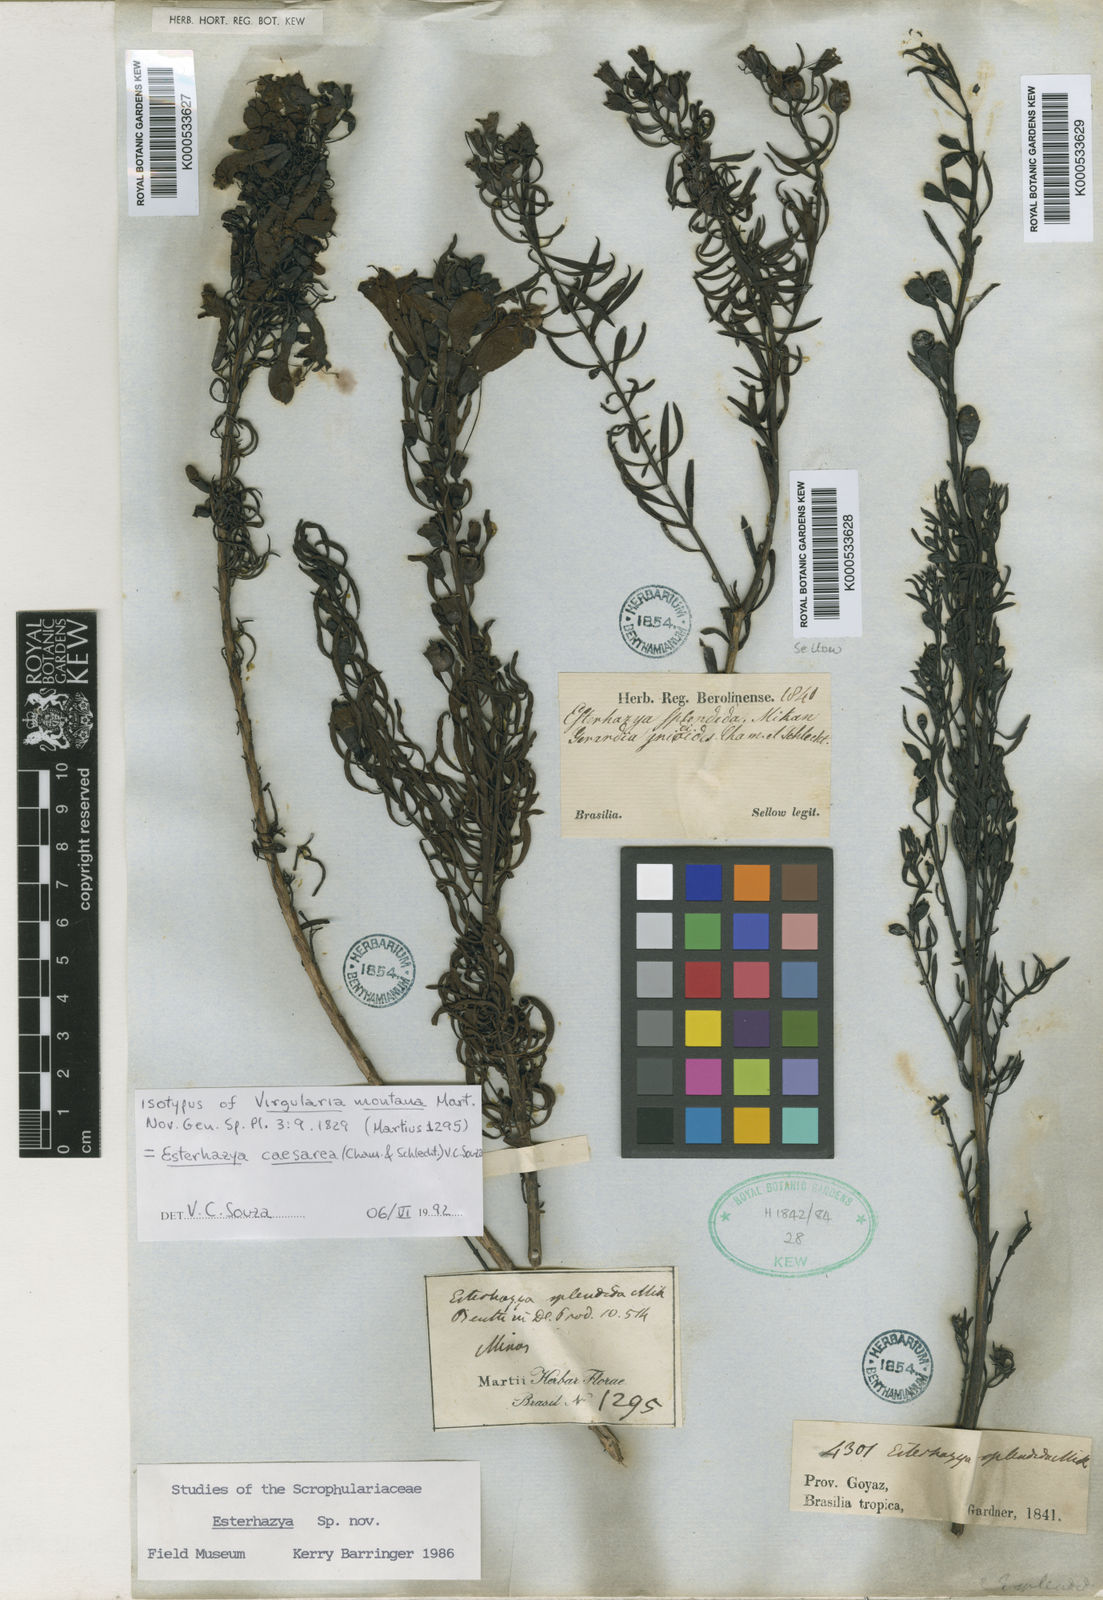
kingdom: Plantae
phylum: Tracheophyta
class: Magnoliopsida
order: Lamiales
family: Orobanchaceae
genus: Agalinis
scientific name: Agalinis
